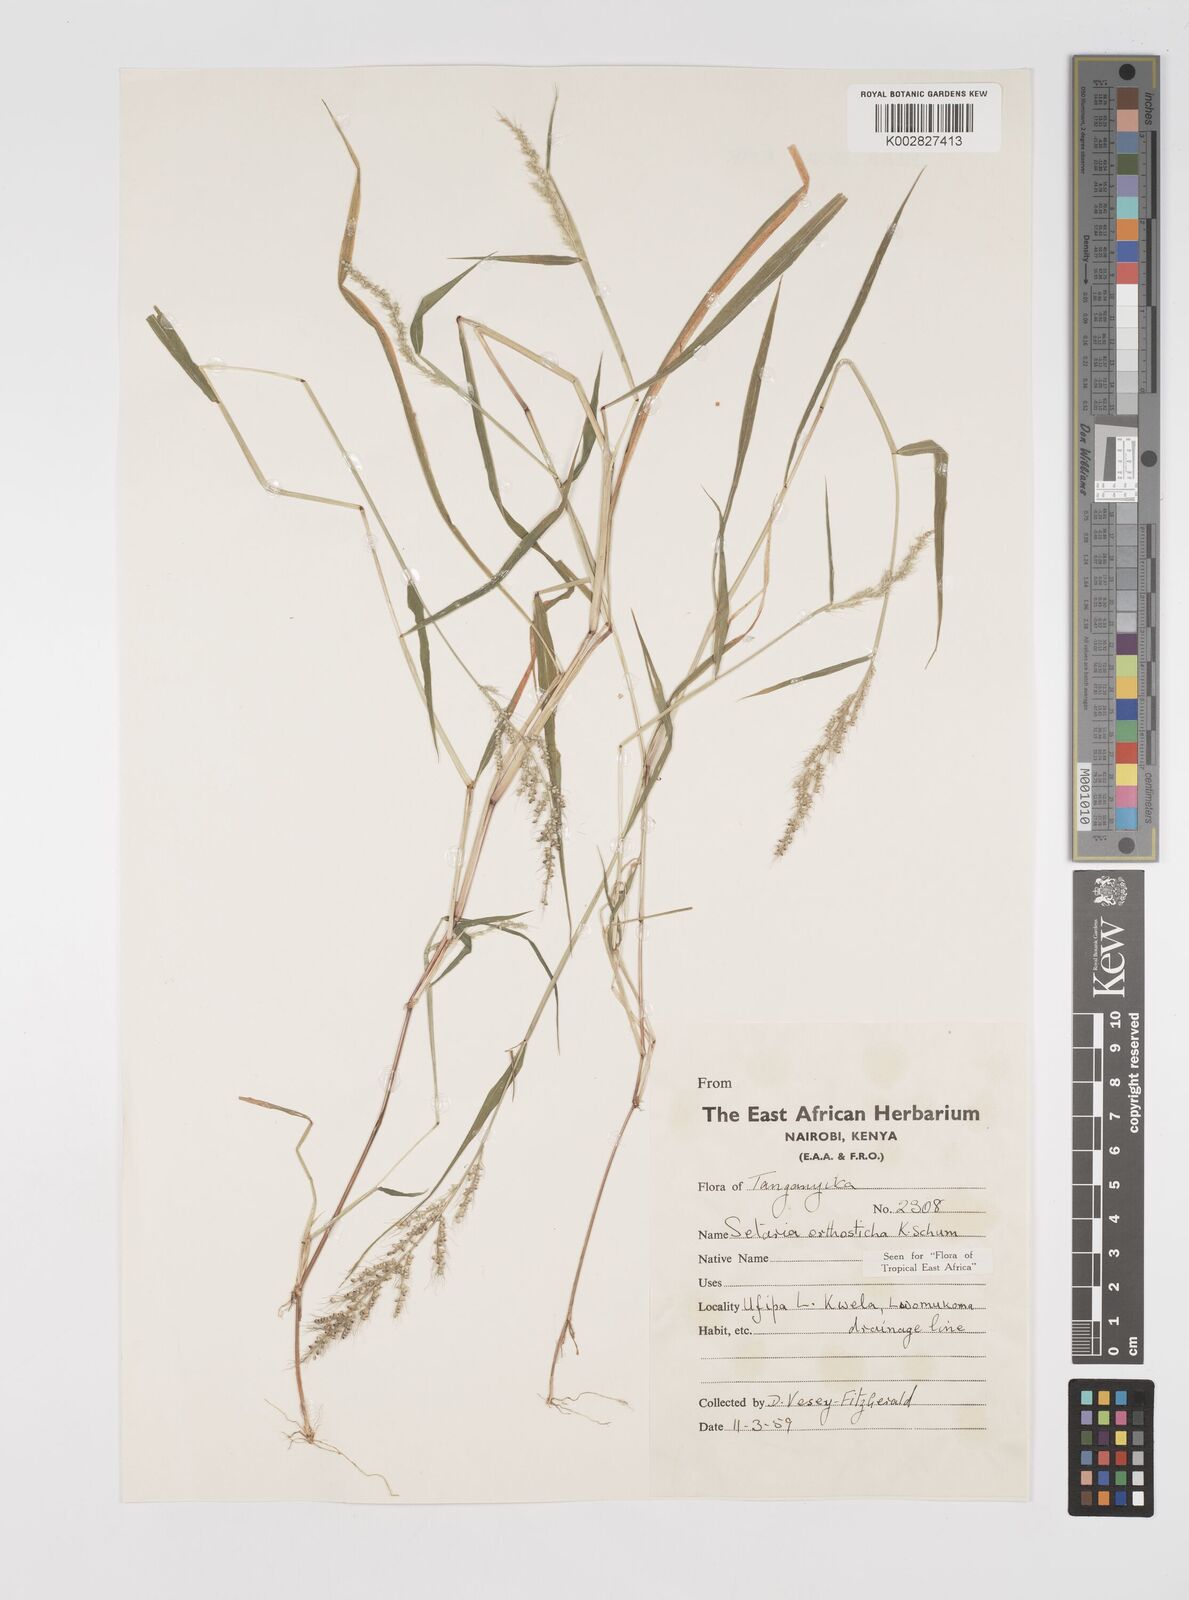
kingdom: Plantae
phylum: Tracheophyta
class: Liliopsida
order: Poales
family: Poaceae
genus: Setaria
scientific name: Setaria orthosticha
